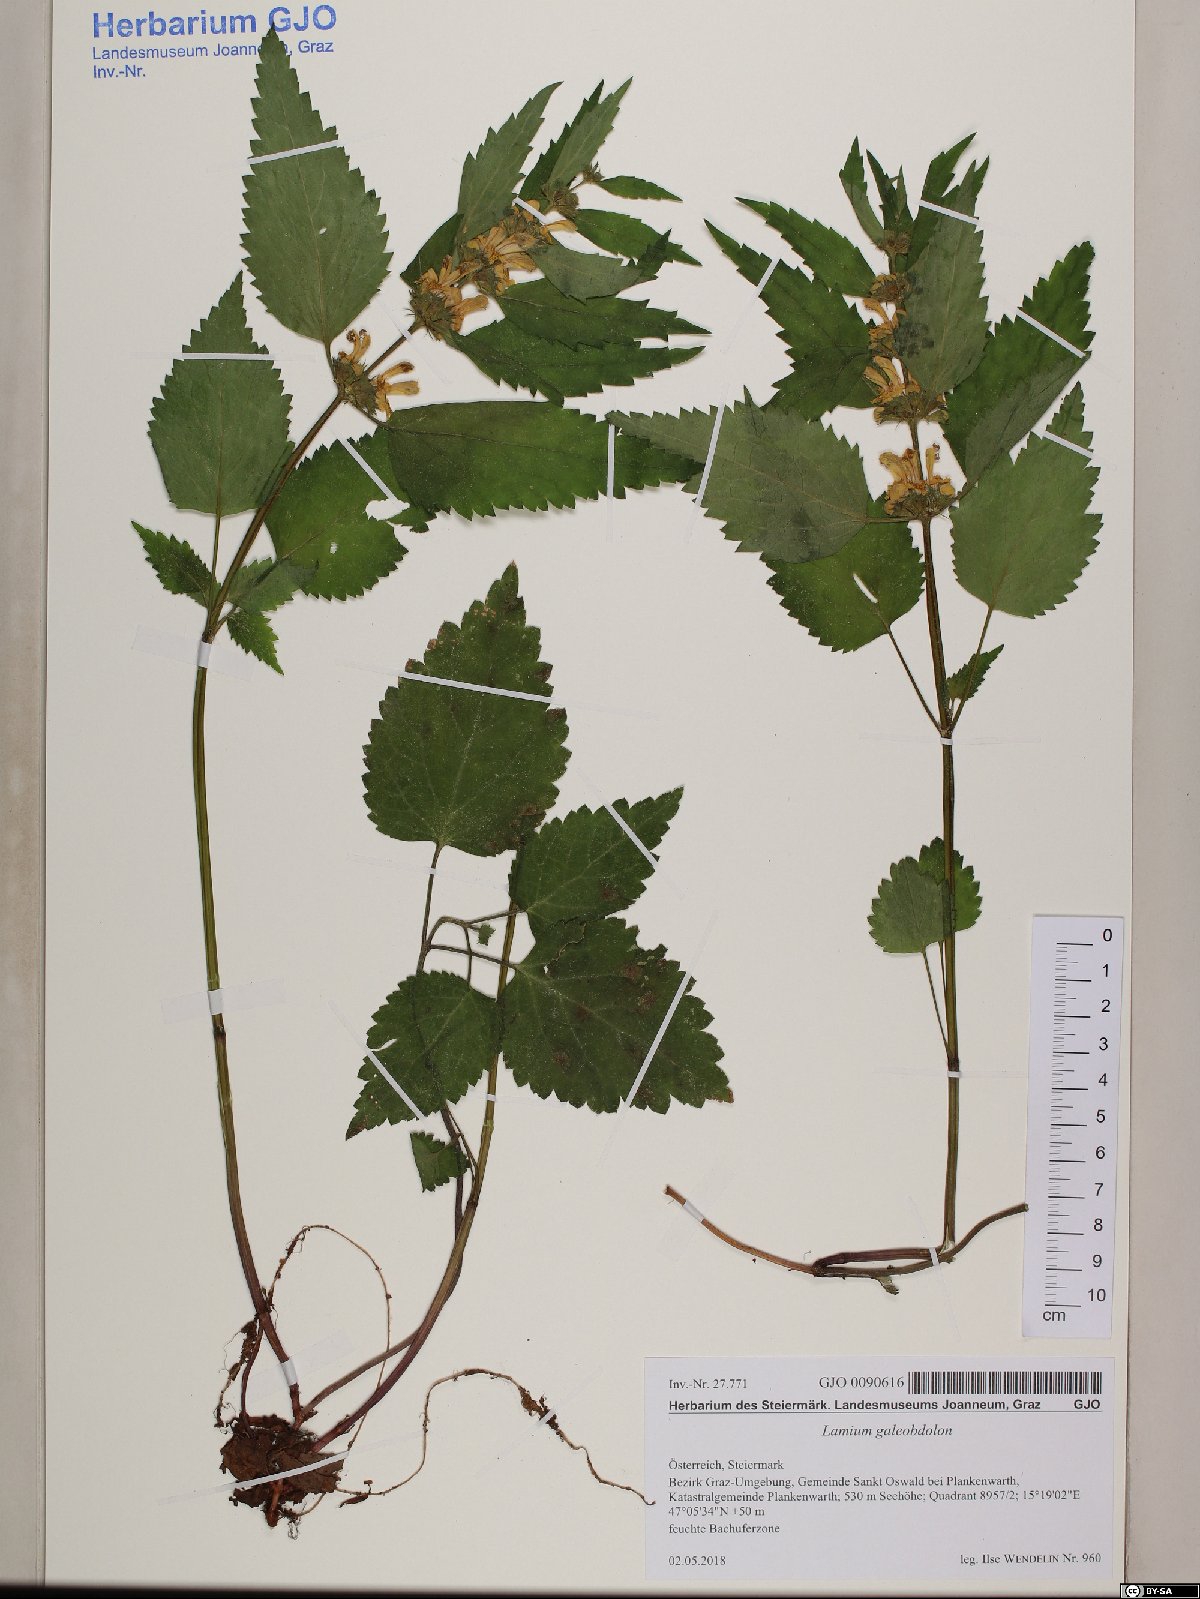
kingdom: Plantae
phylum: Tracheophyta
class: Magnoliopsida
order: Lamiales
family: Lamiaceae
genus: Lamium
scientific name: Lamium galeobdolon
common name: Yellow archangel
